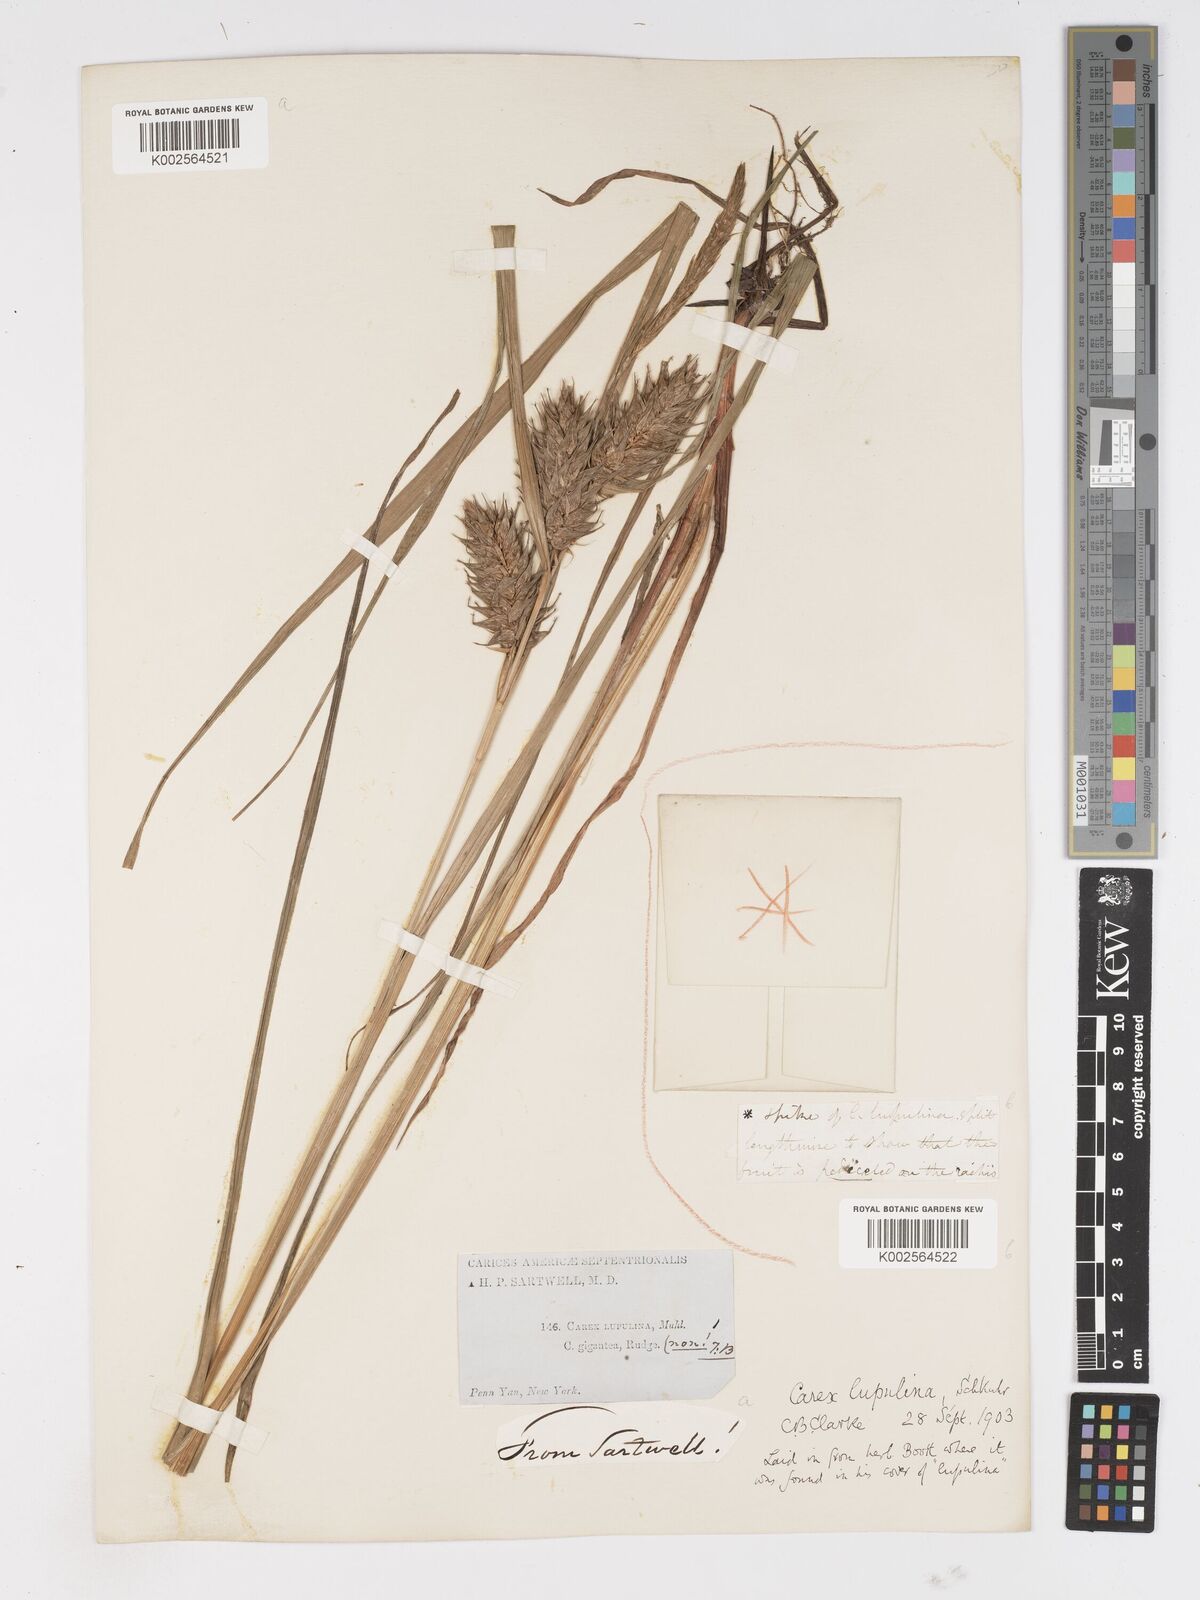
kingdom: Plantae
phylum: Tracheophyta
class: Liliopsida
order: Poales
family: Cyperaceae
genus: Carex
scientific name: Carex lupulina
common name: Hop sedge
